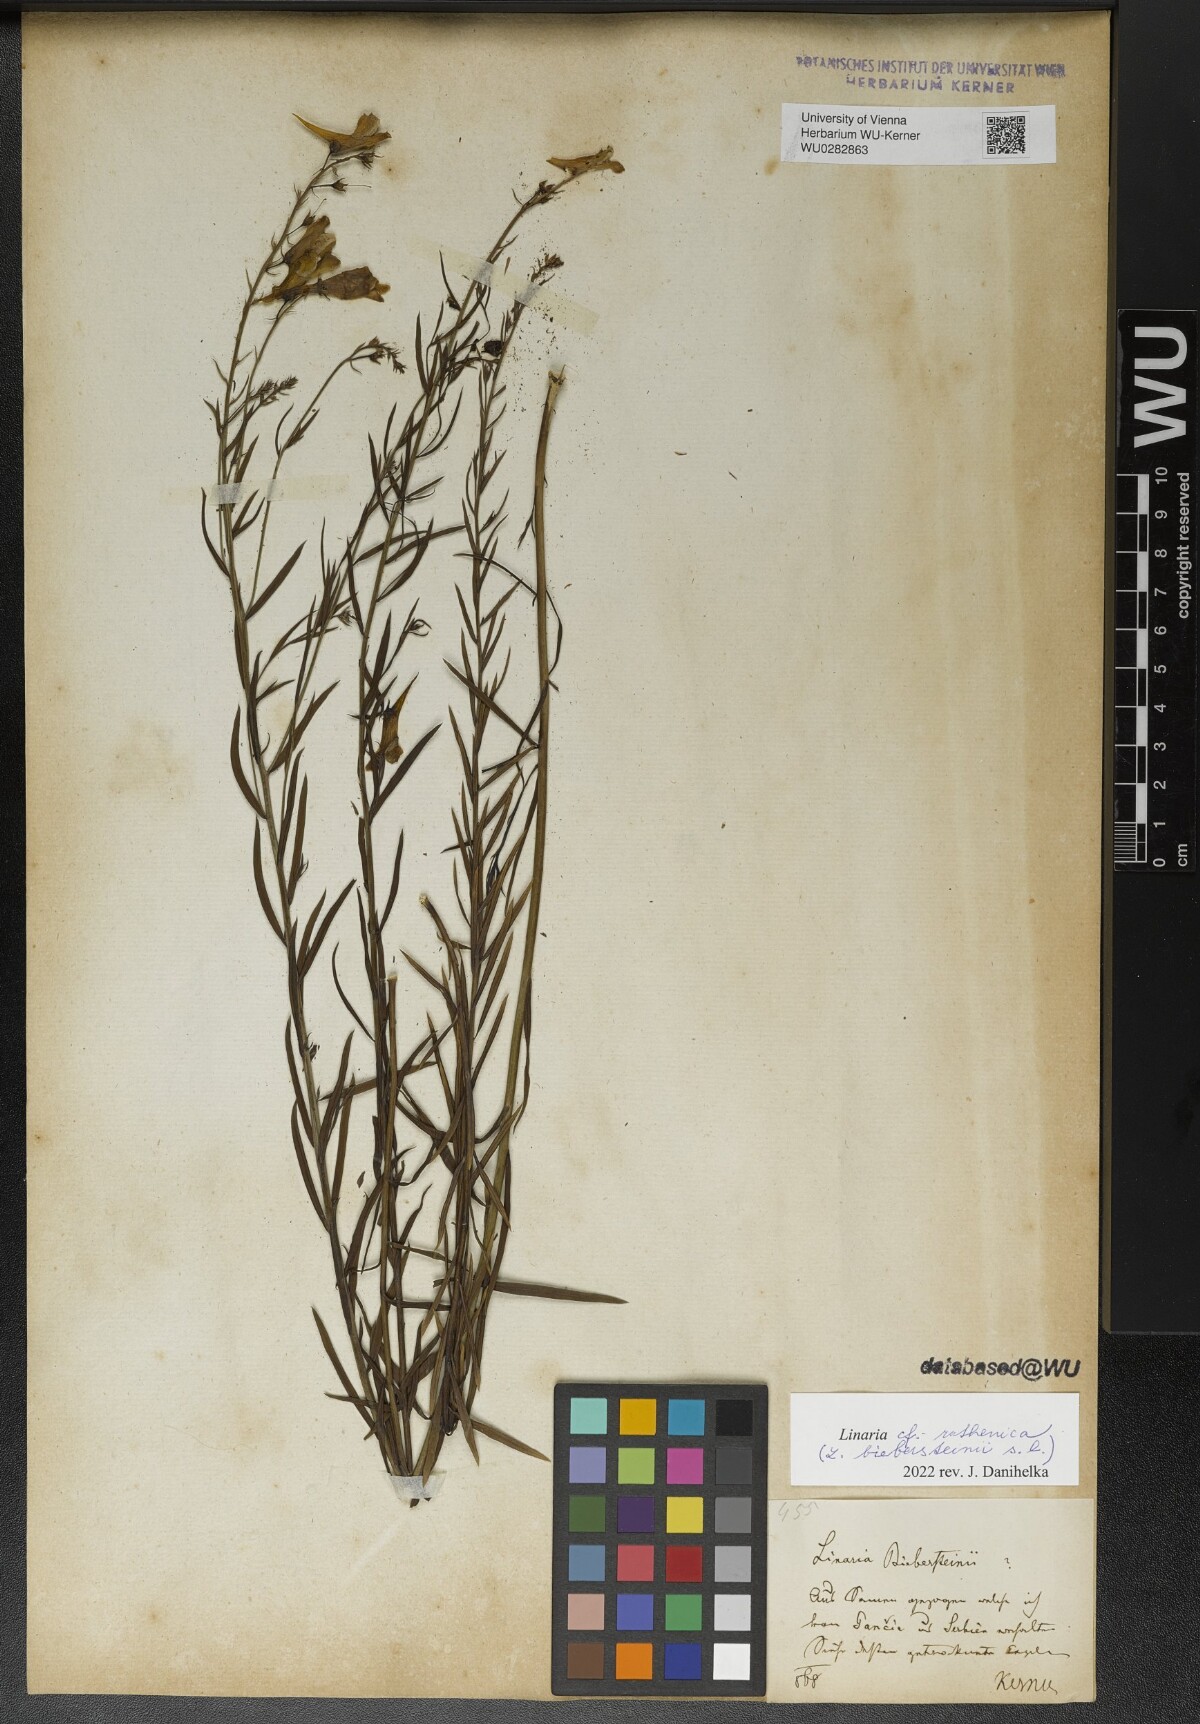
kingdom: Plantae
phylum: Tracheophyta
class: Magnoliopsida
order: Lamiales
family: Plantaginaceae
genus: Linaria
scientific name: Linaria biebersteinii
